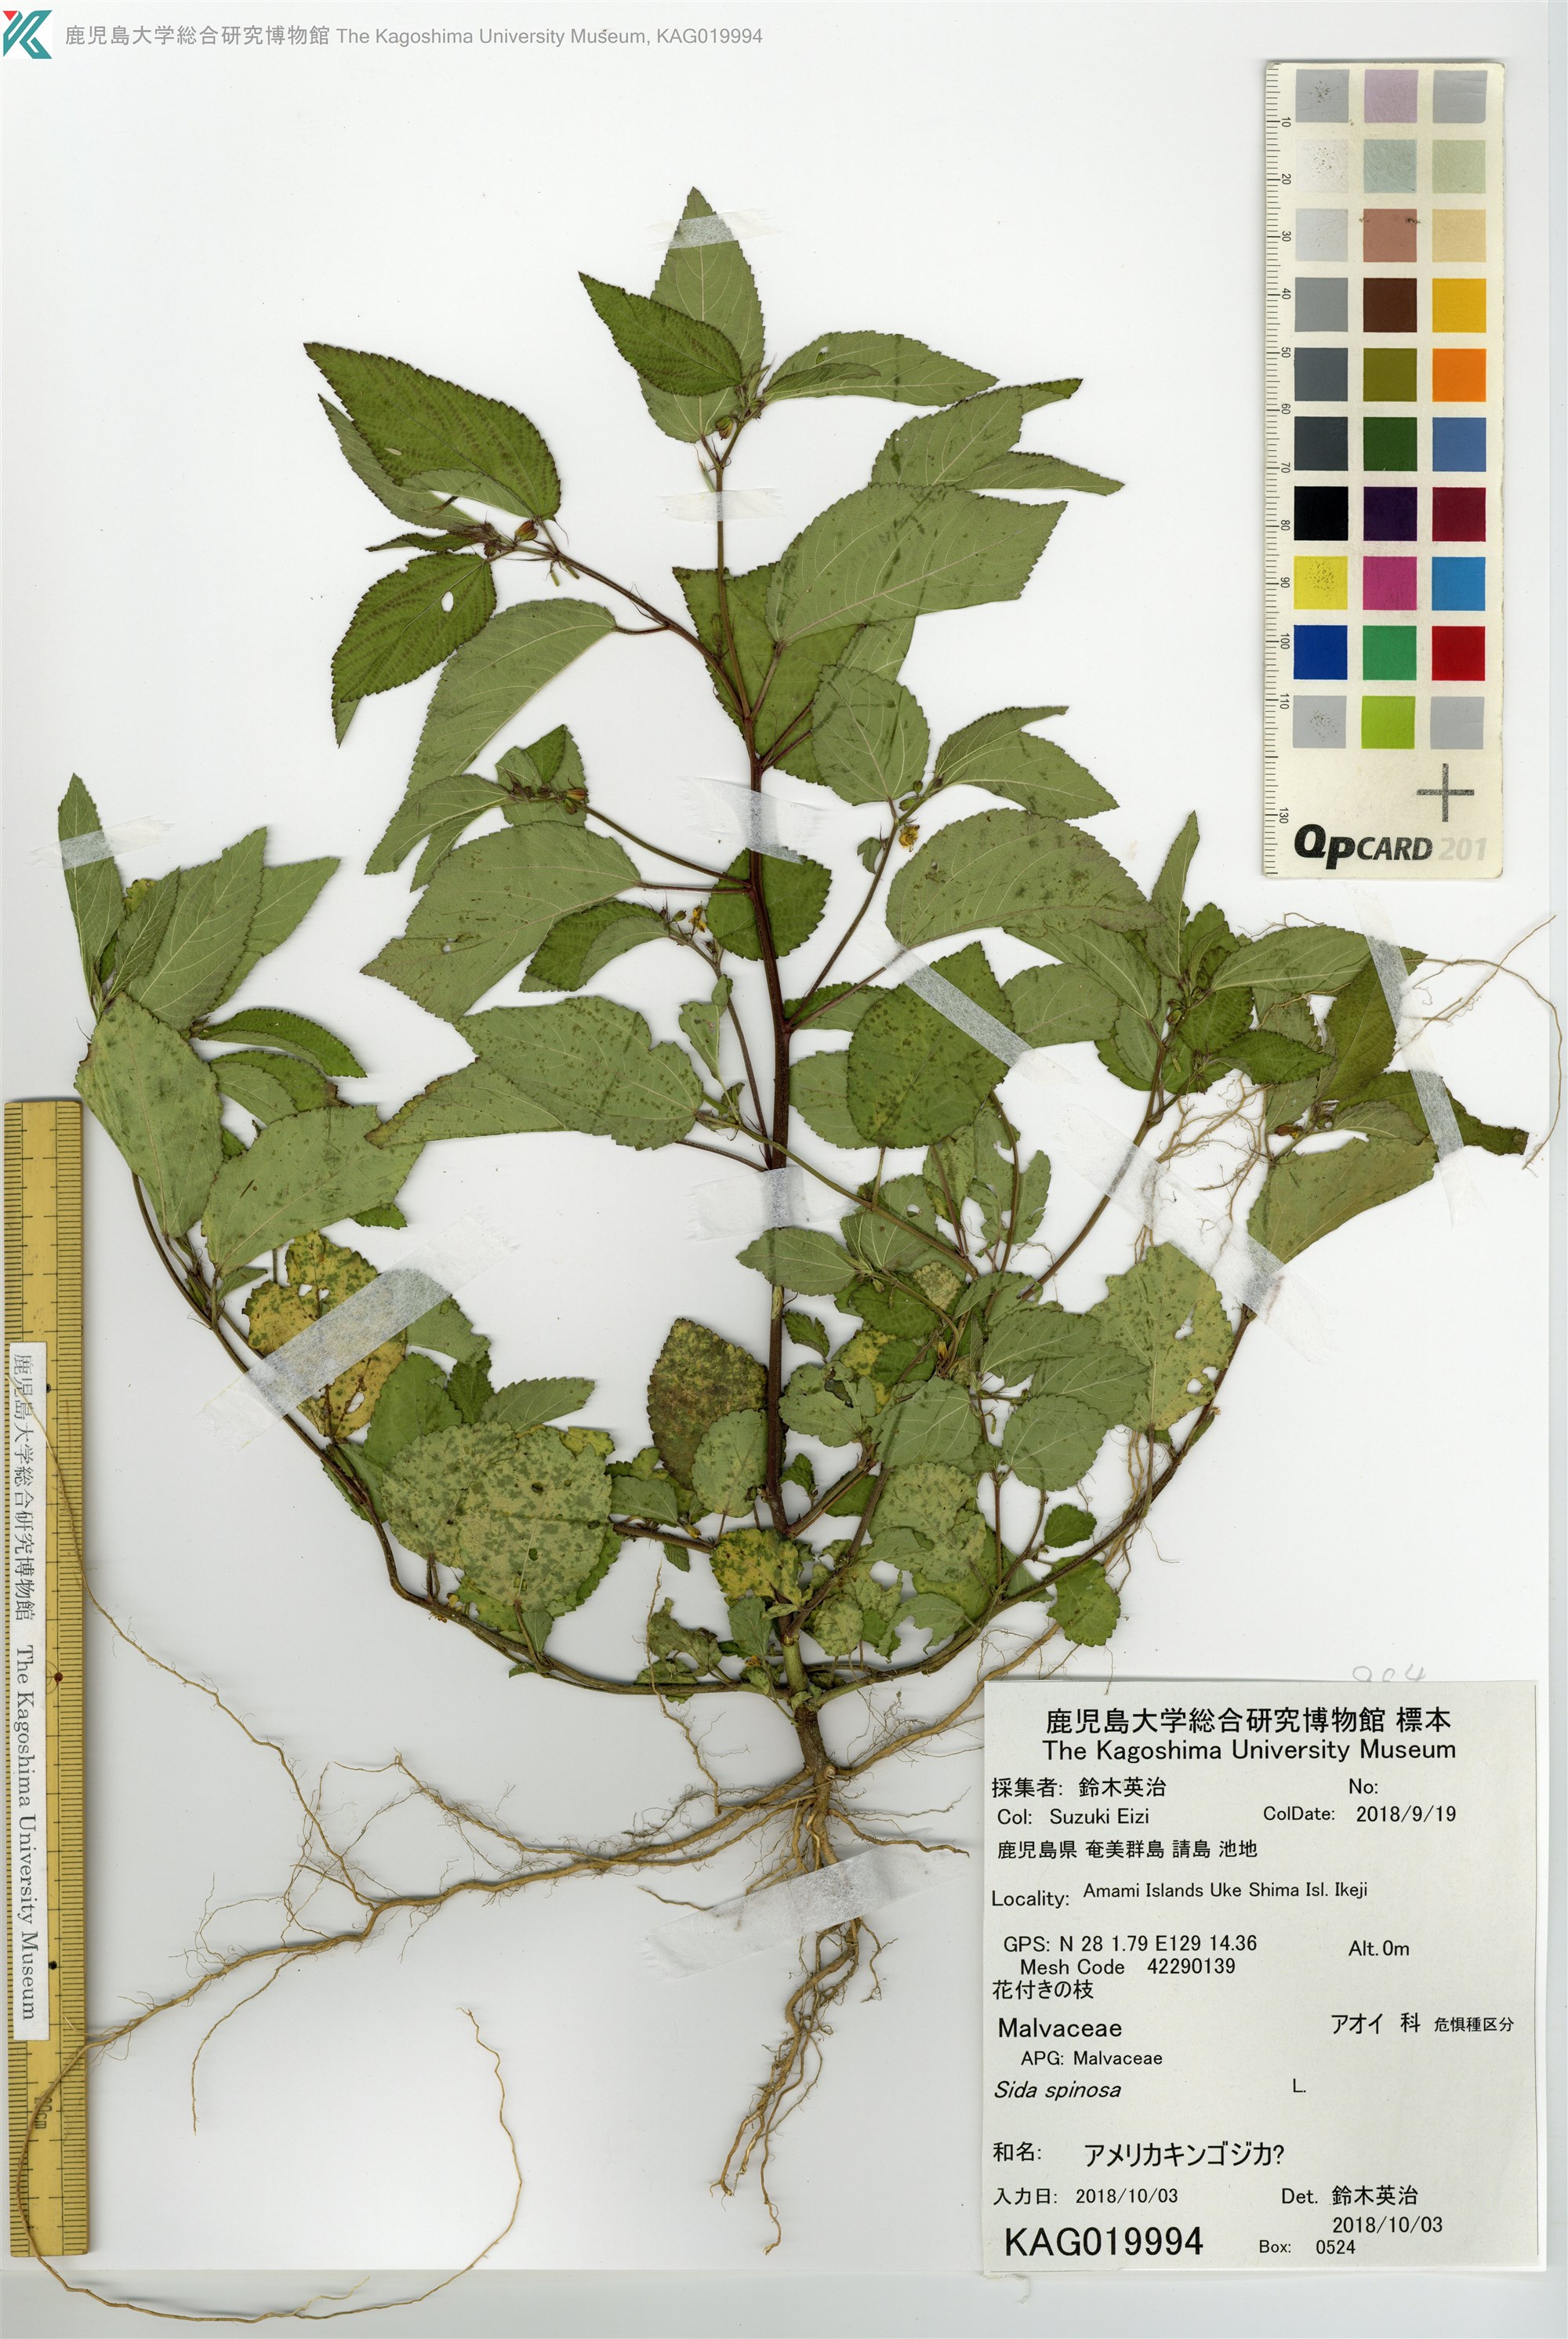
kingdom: Plantae
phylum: Tracheophyta
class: Magnoliopsida
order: Malvales
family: Malvaceae
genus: Corchorus
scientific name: Corchorus aestuans
